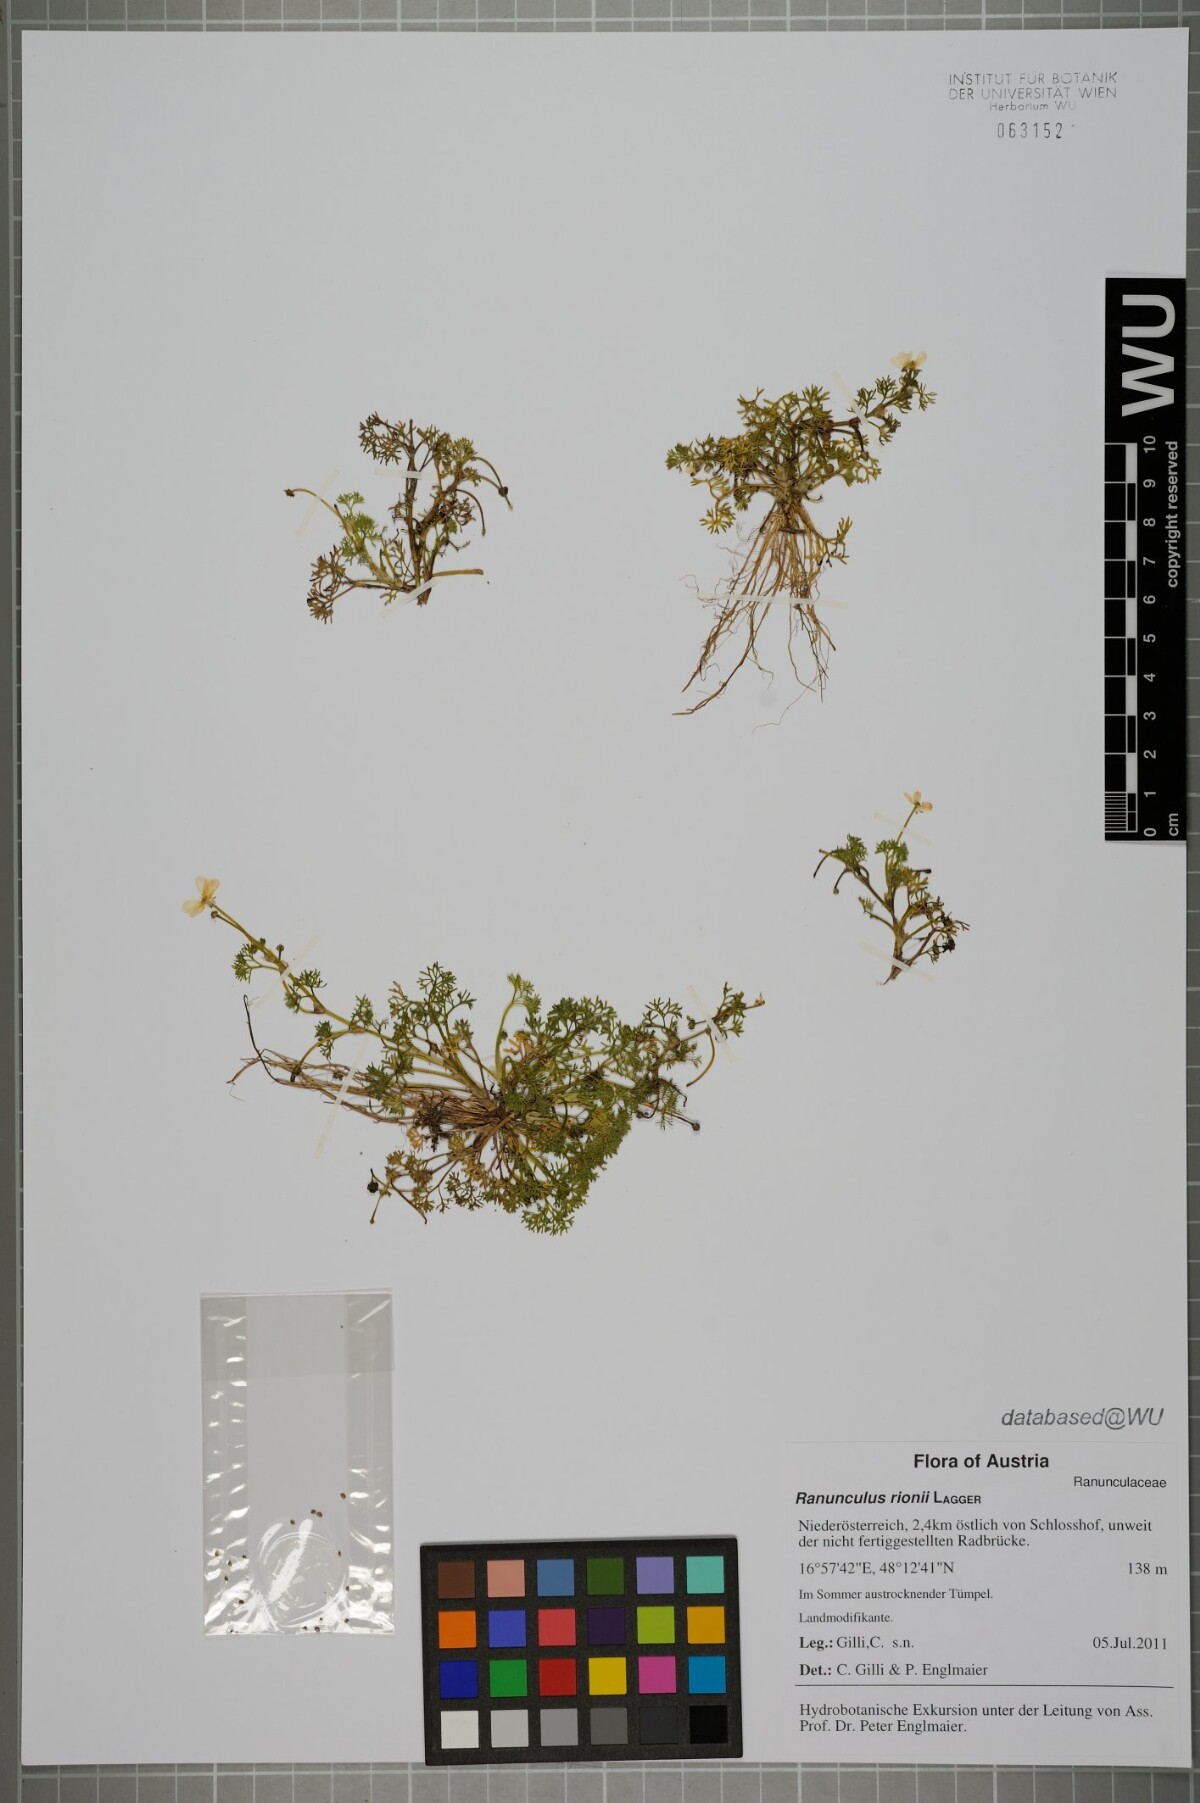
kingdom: Plantae
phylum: Tracheophyta
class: Magnoliopsida
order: Ranunculales
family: Ranunculaceae
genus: Ranunculus
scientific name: Ranunculus rionii
